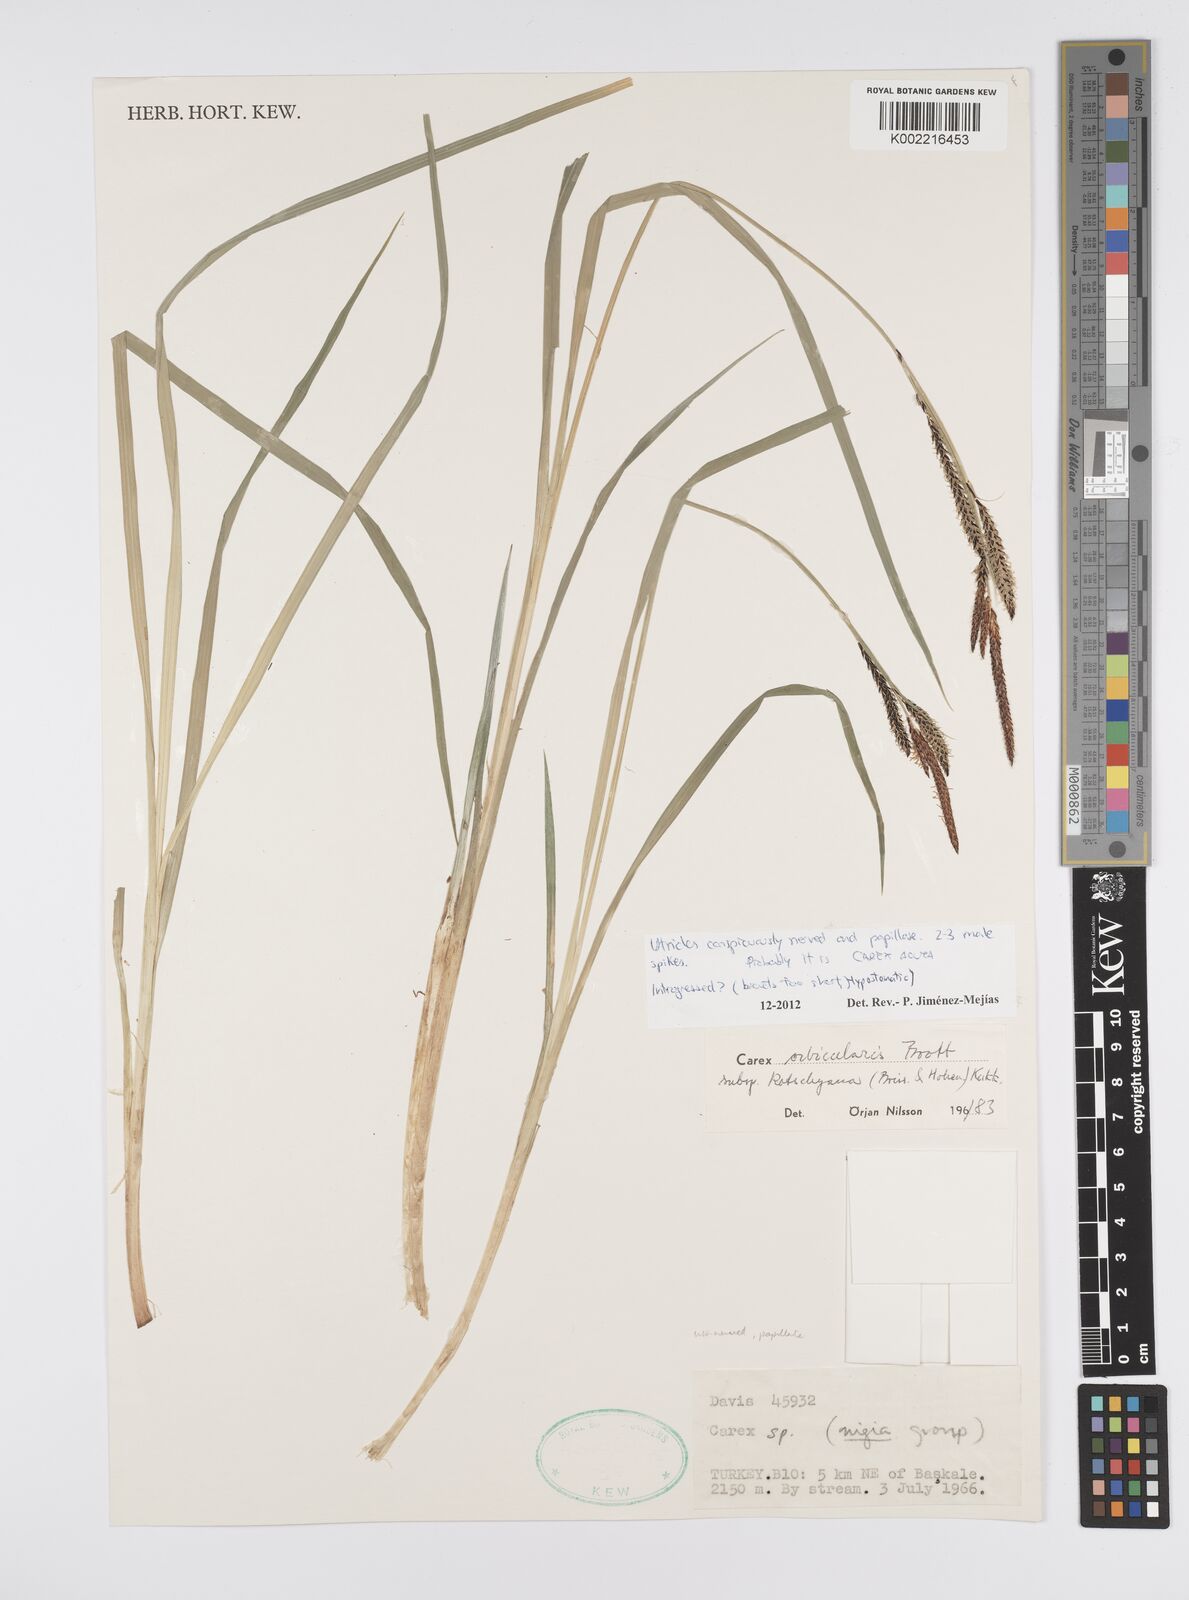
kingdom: Plantae
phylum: Tracheophyta
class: Liliopsida
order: Poales
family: Cyperaceae
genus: Carex
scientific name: Carex acuta
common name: Slender tufted-sedge
